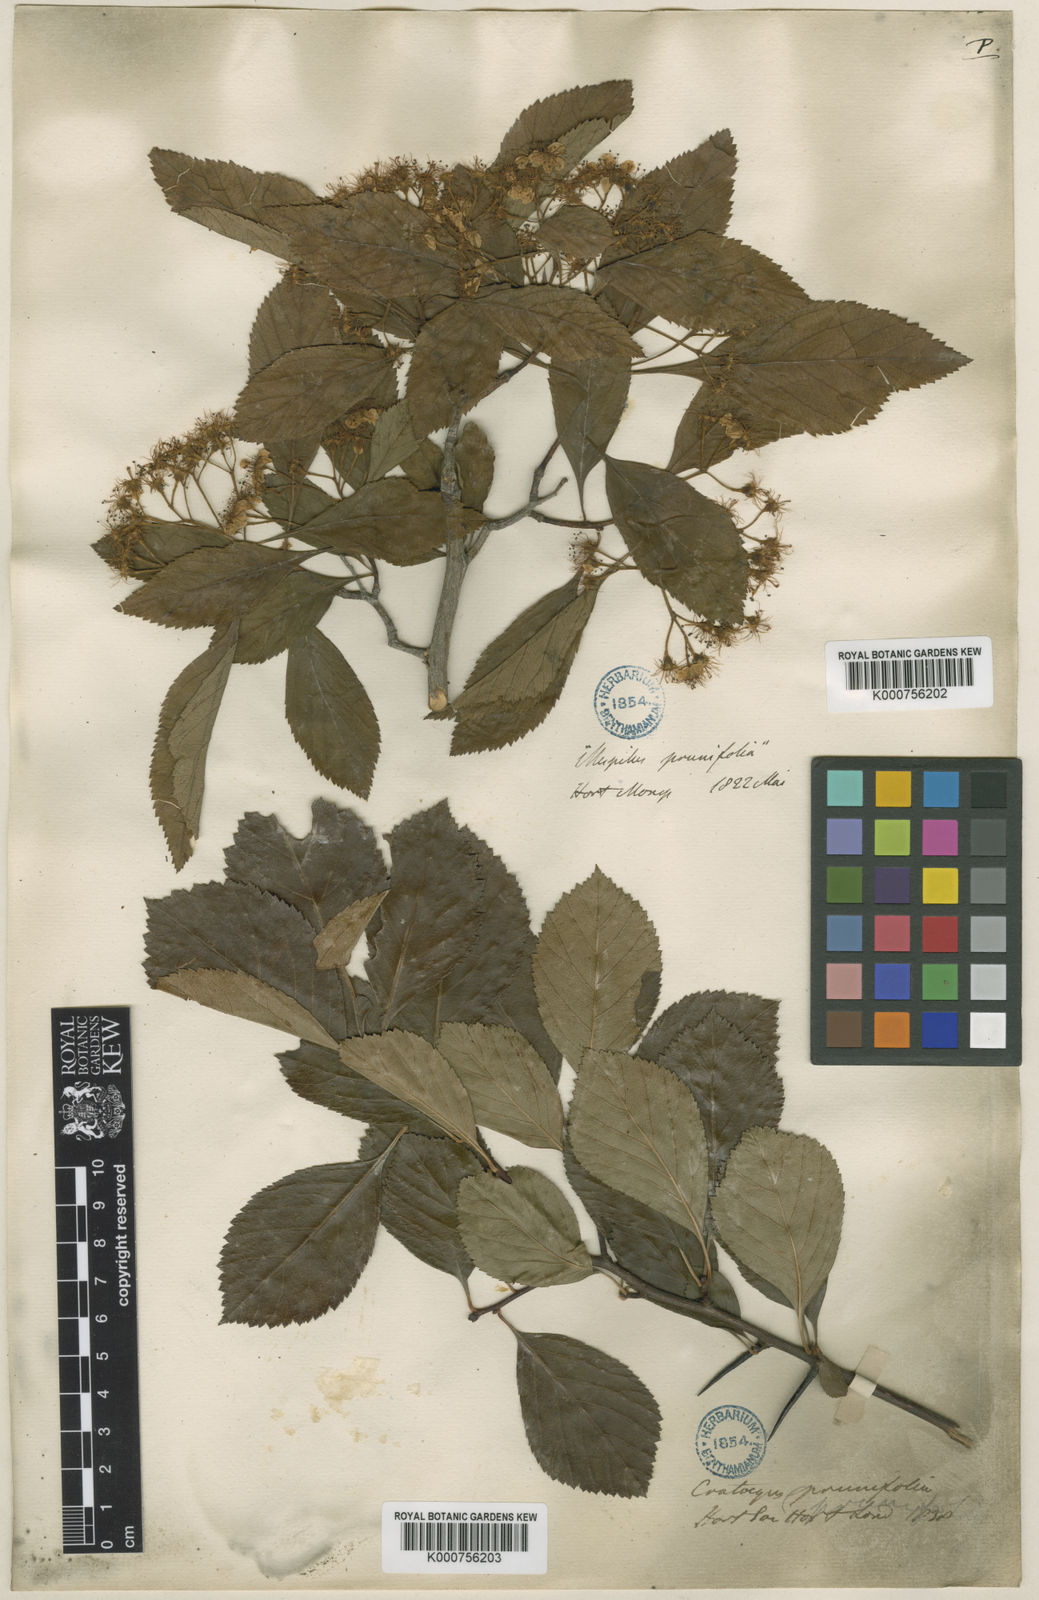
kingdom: Plantae
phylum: Tracheophyta
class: Magnoliopsida
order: Rosales
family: Rosaceae
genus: Aronia
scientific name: Aronia prunifolia
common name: Purple chokeberry
